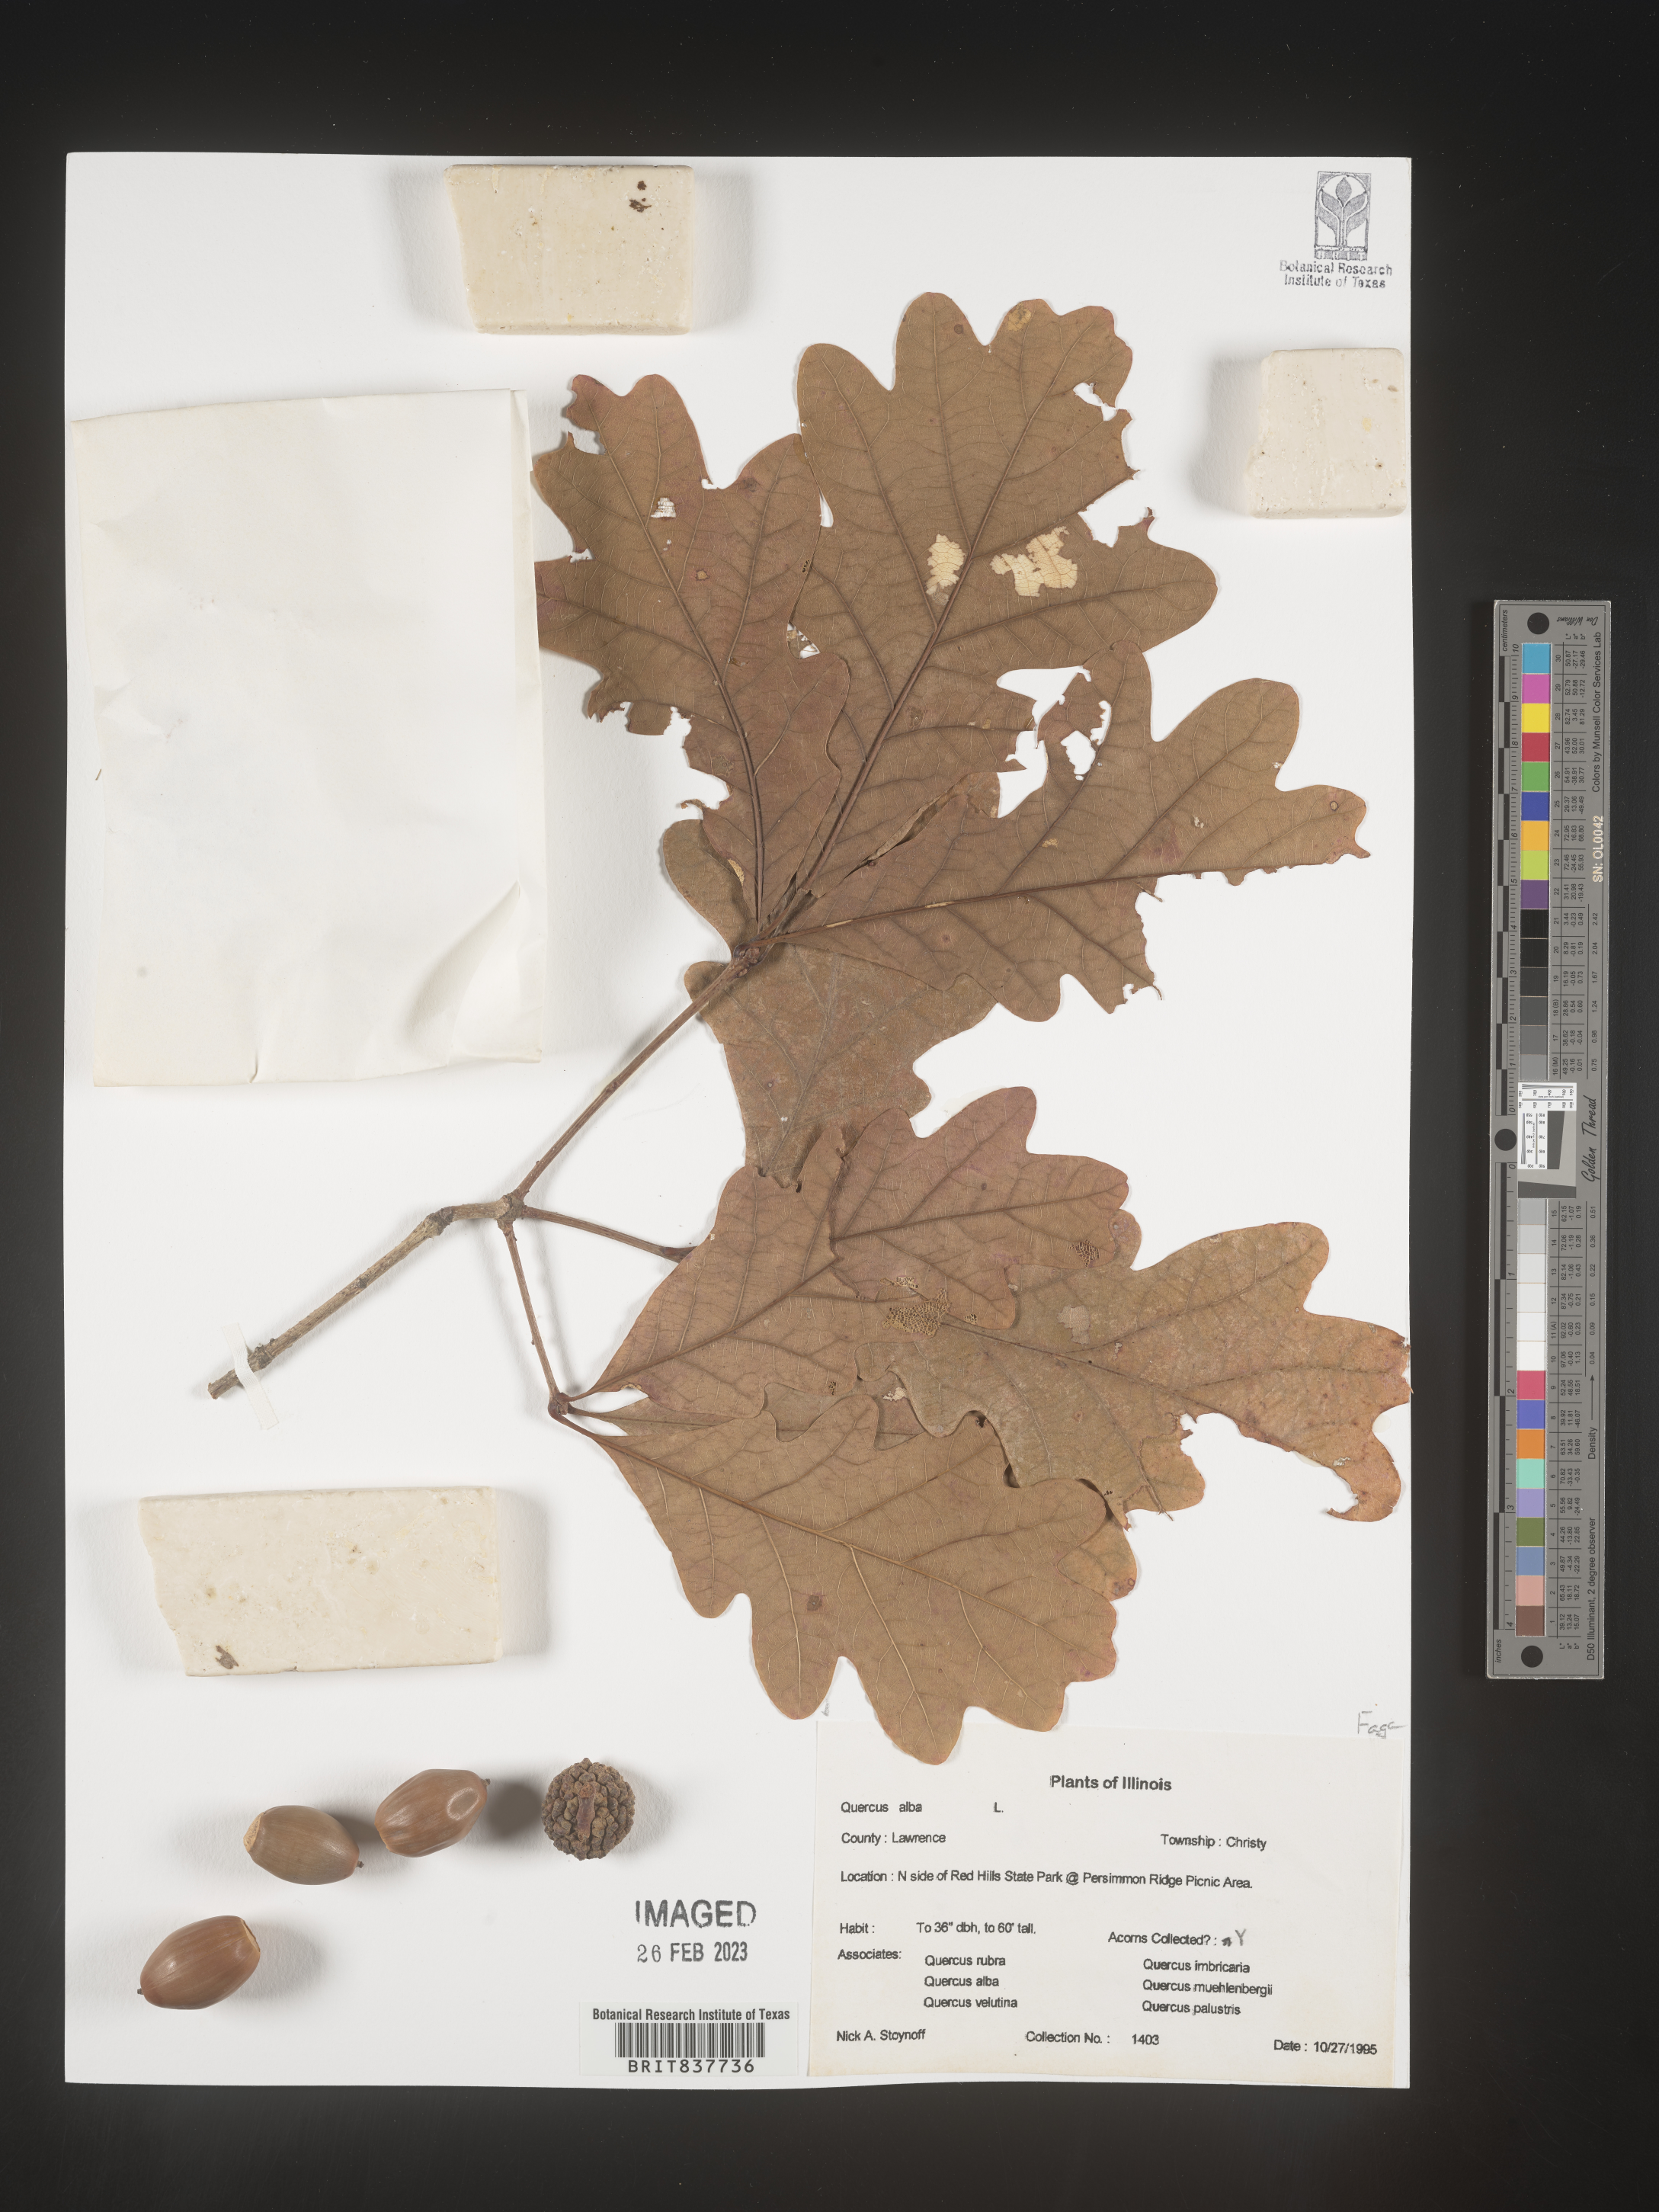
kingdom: Plantae
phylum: Tracheophyta
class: Magnoliopsida
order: Fagales
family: Fagaceae
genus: Quercus
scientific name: Quercus alba
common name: White oak
